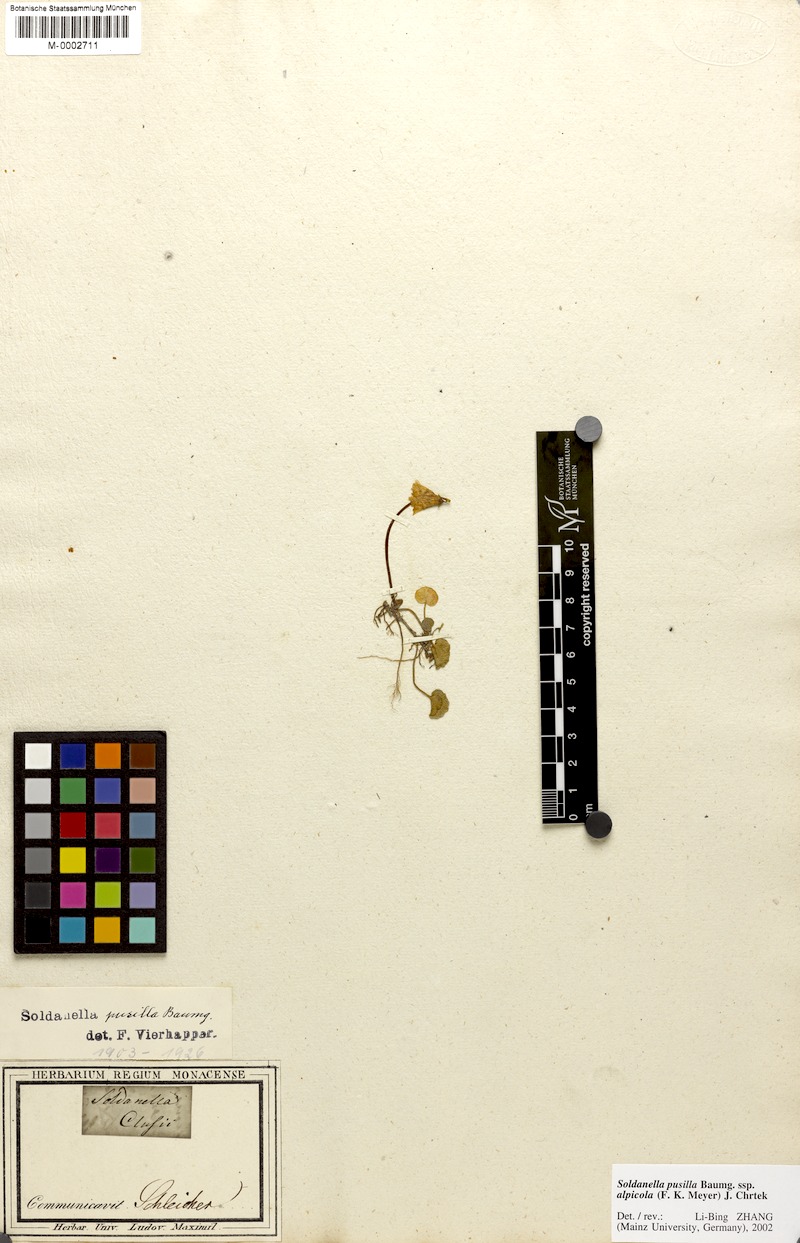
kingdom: Plantae
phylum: Tracheophyta
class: Magnoliopsida
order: Ericales
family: Primulaceae
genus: Soldanella
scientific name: Soldanella alpicola
